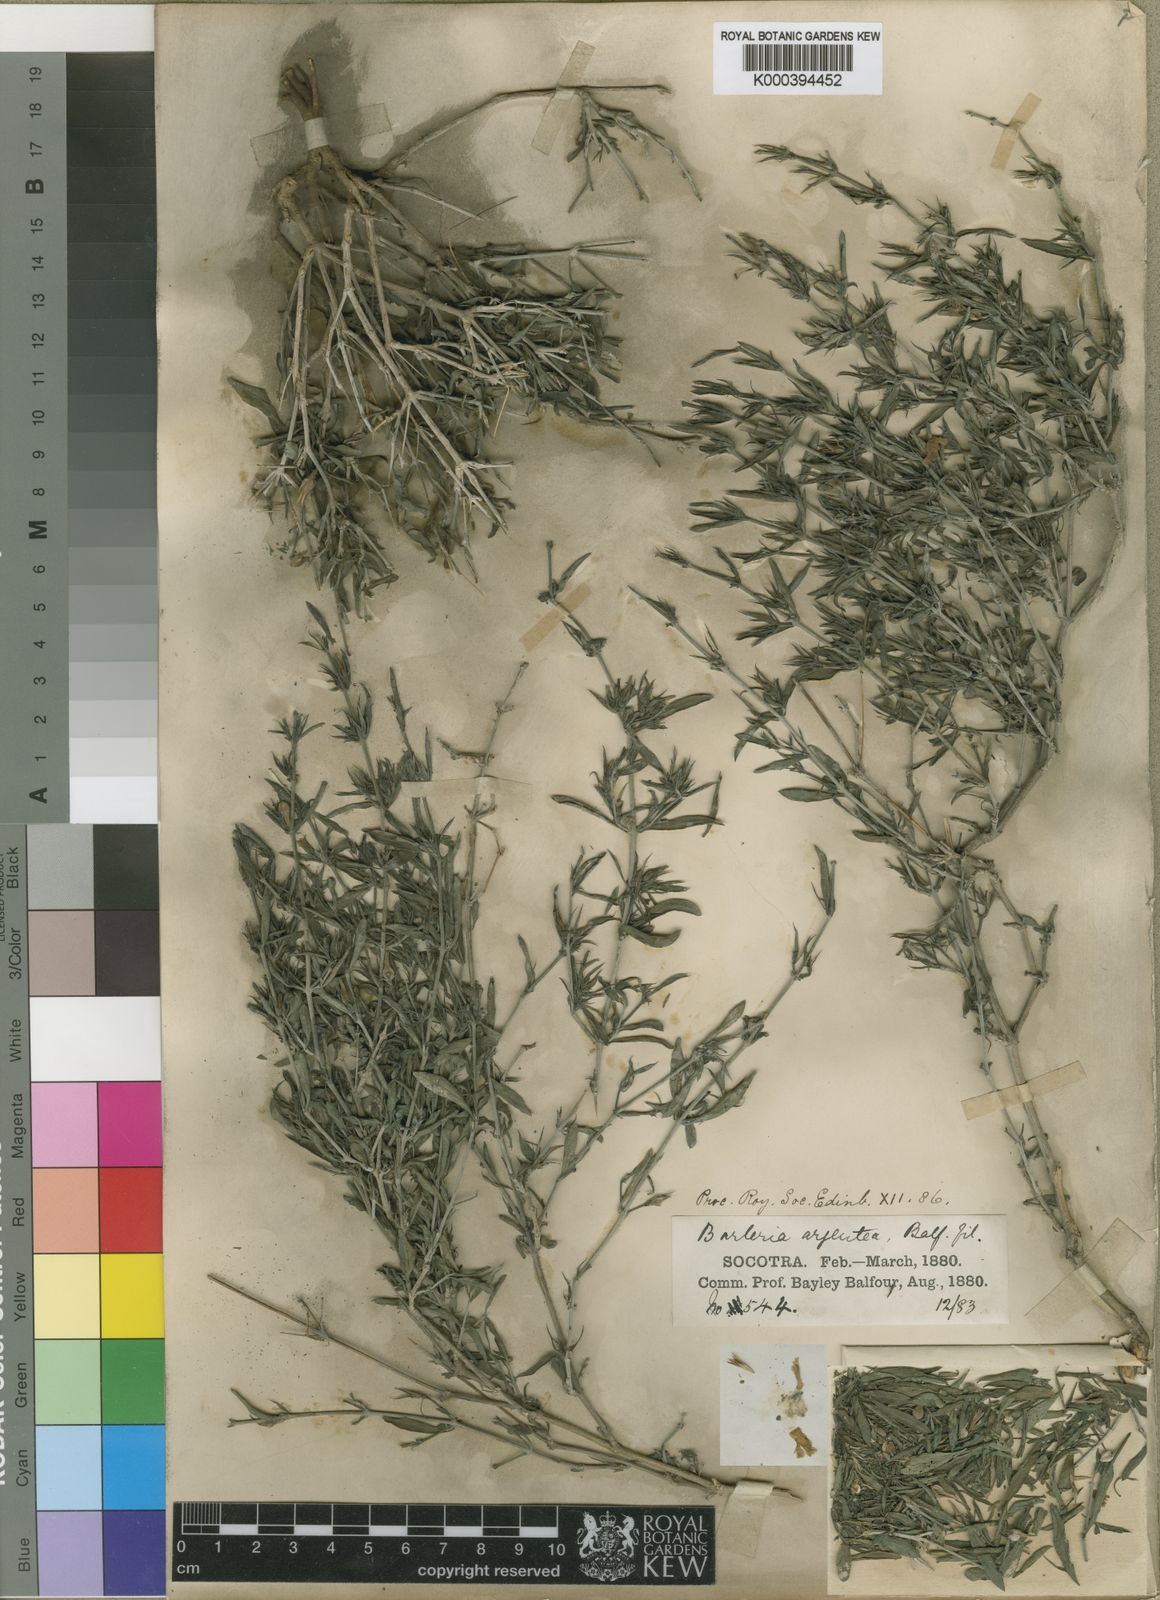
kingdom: Plantae
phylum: Tracheophyta
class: Magnoliopsida
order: Lamiales
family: Acanthaceae
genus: Barleria
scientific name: Barleria argentea
